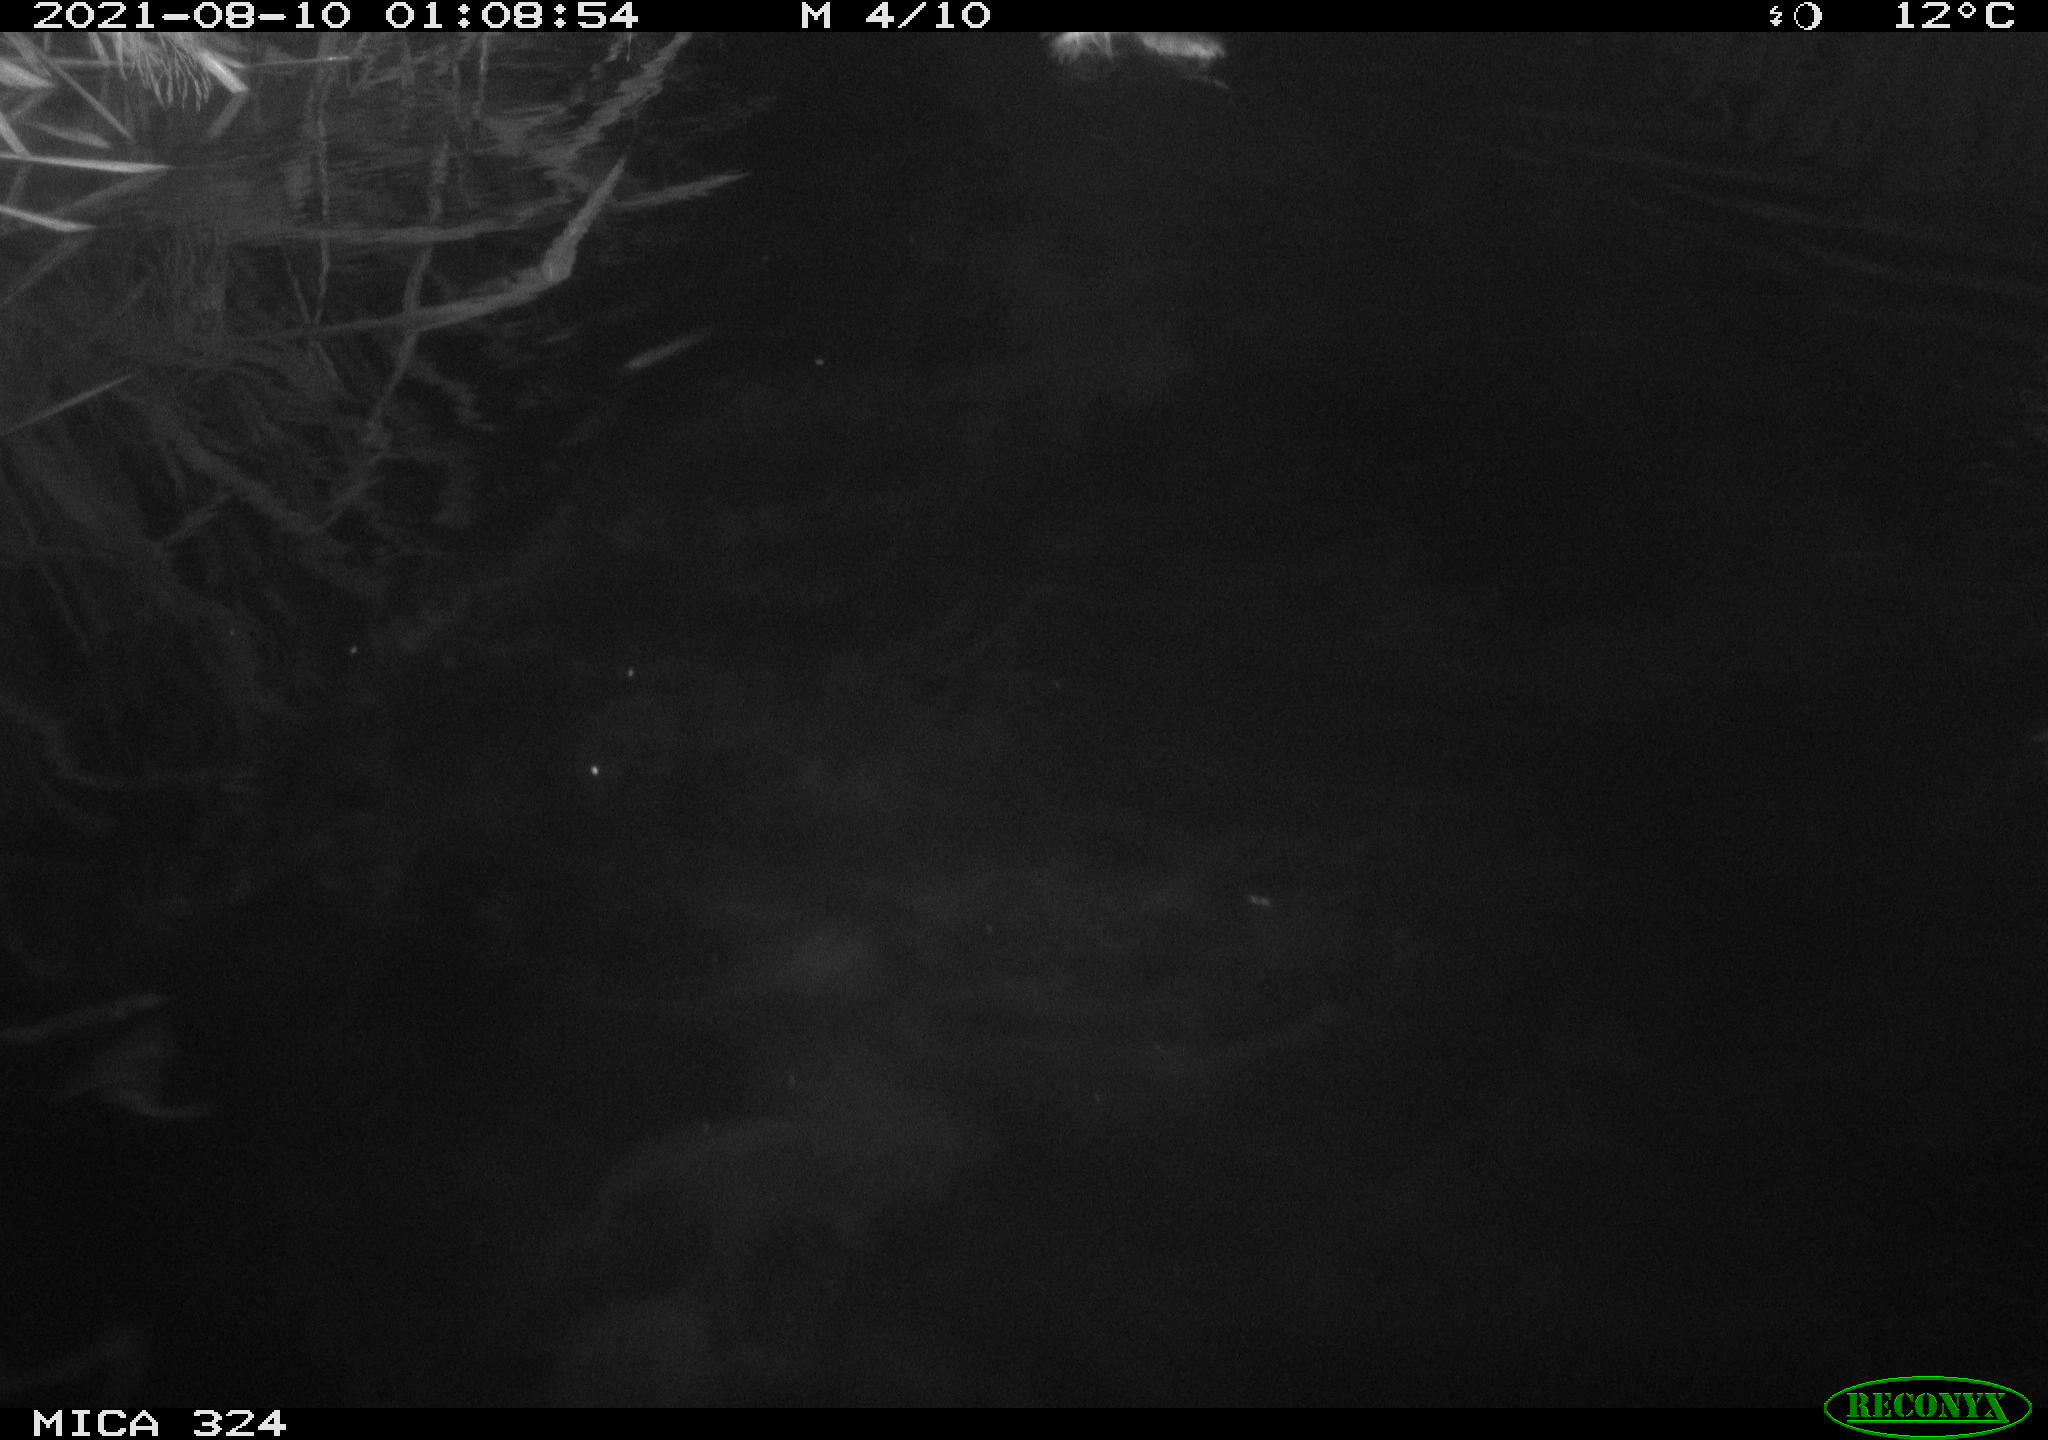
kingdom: Animalia
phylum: Chordata
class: Mammalia
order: Rodentia
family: Cricetidae
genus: Ondatra
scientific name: Ondatra zibethicus
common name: Muskrat
